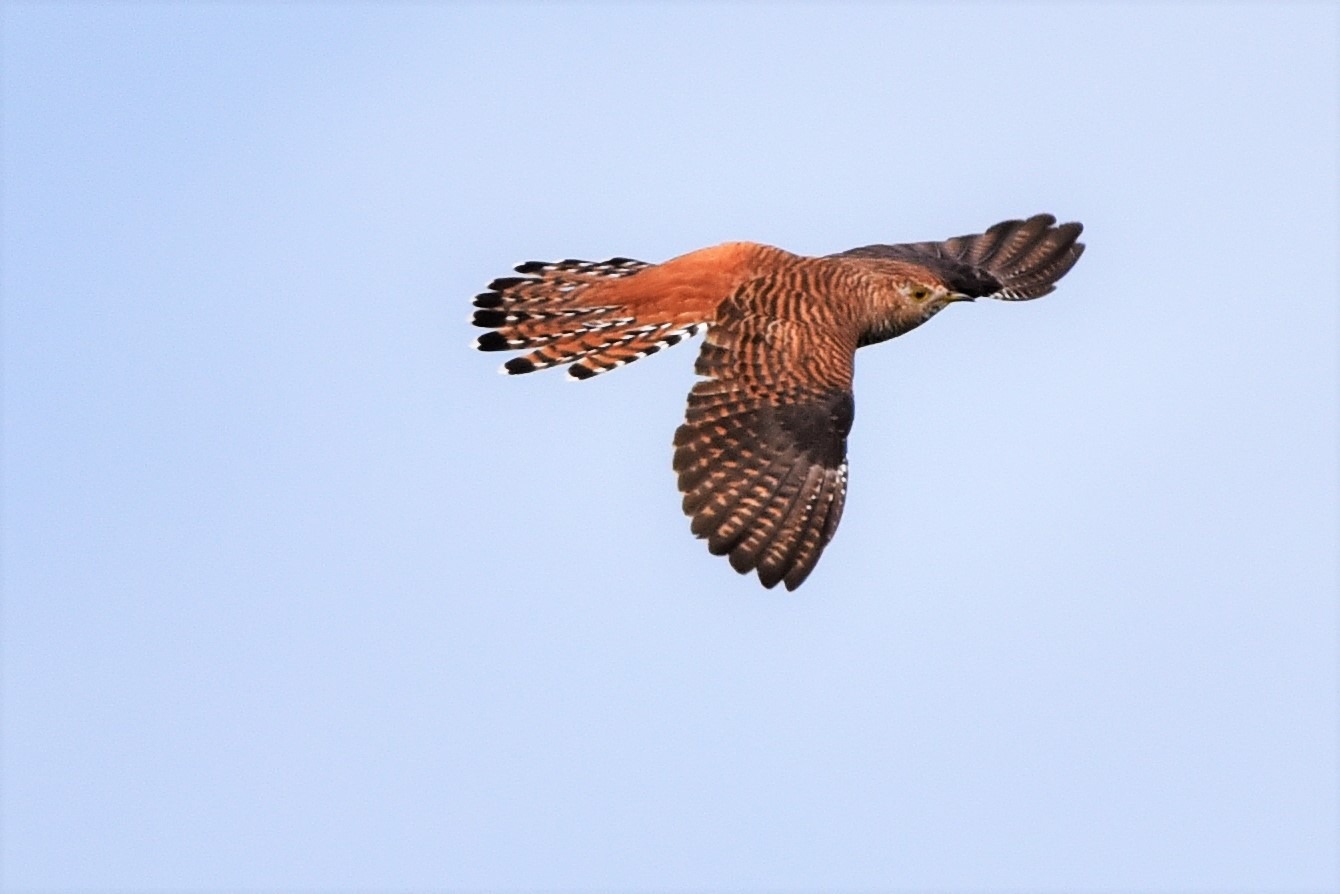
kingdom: Animalia
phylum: Chordata
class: Aves
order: Cuculiformes
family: Cuculidae
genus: Cuculus
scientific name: Cuculus canorus
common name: Gøg
